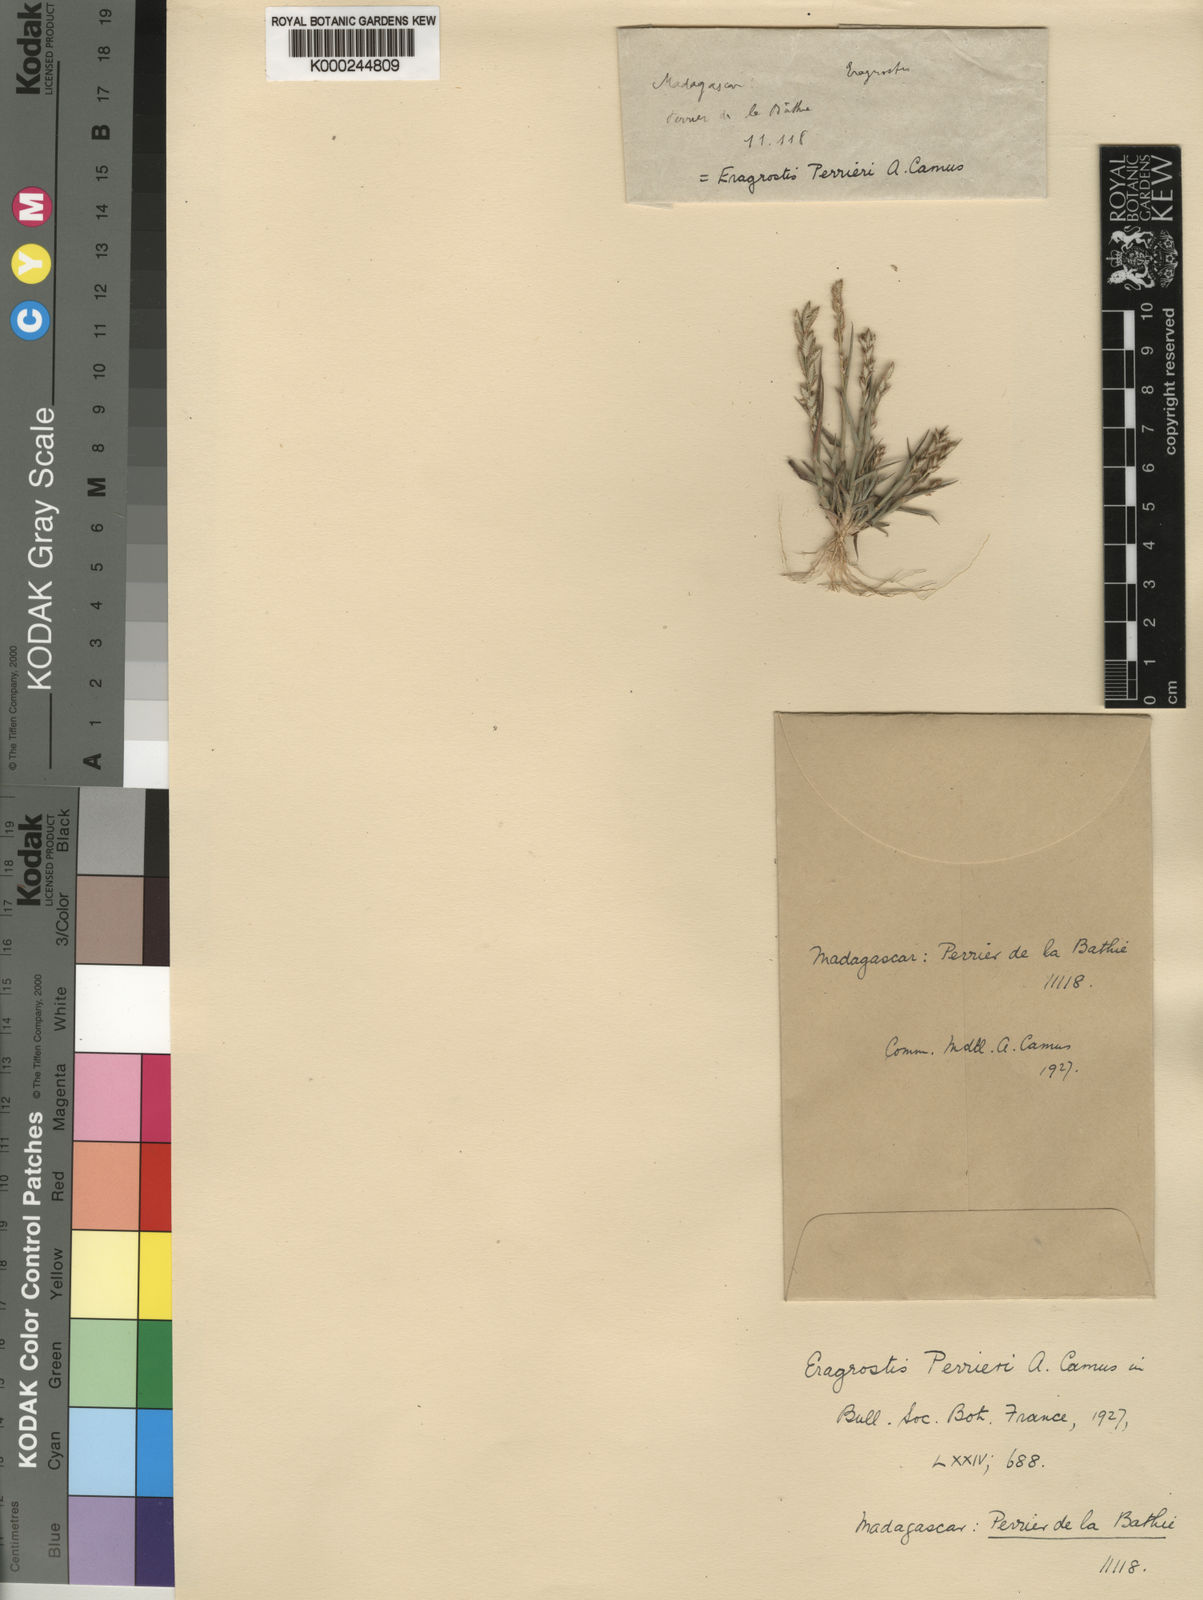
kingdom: Plantae
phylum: Tracheophyta
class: Liliopsida
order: Poales
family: Poaceae
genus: Eragrostis
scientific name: Eragrostis perrieri
